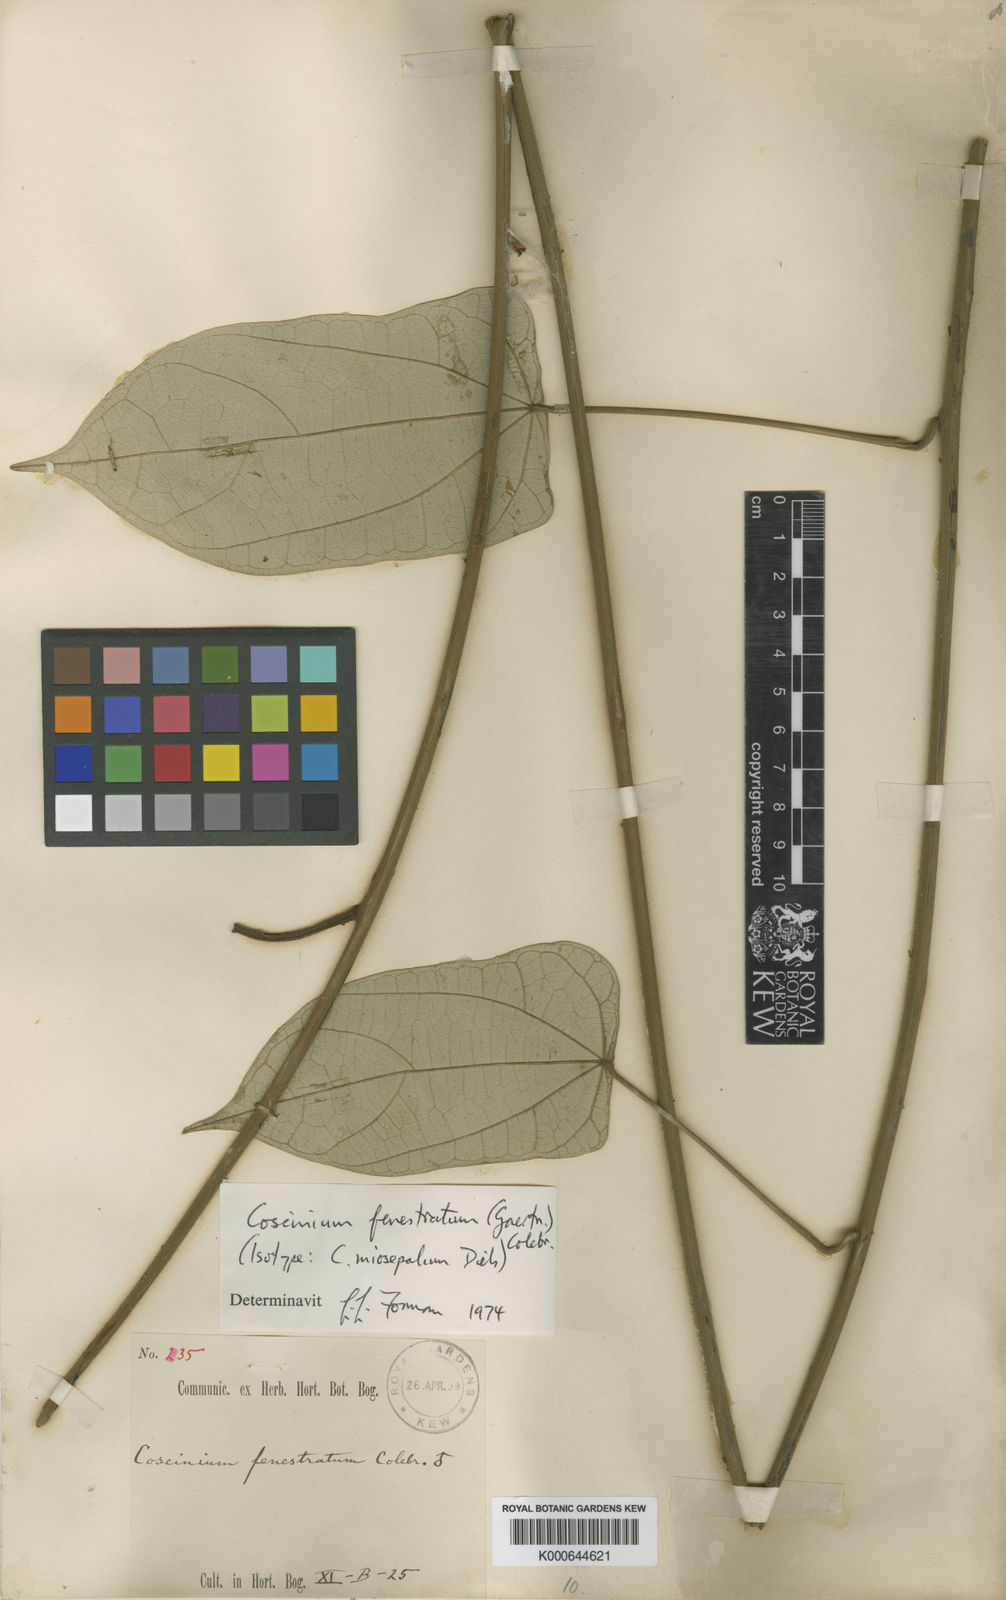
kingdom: Plantae
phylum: Tracheophyta
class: Magnoliopsida
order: Ranunculales
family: Menispermaceae
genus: Coscinium
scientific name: Coscinium fenestratum
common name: False calumba
